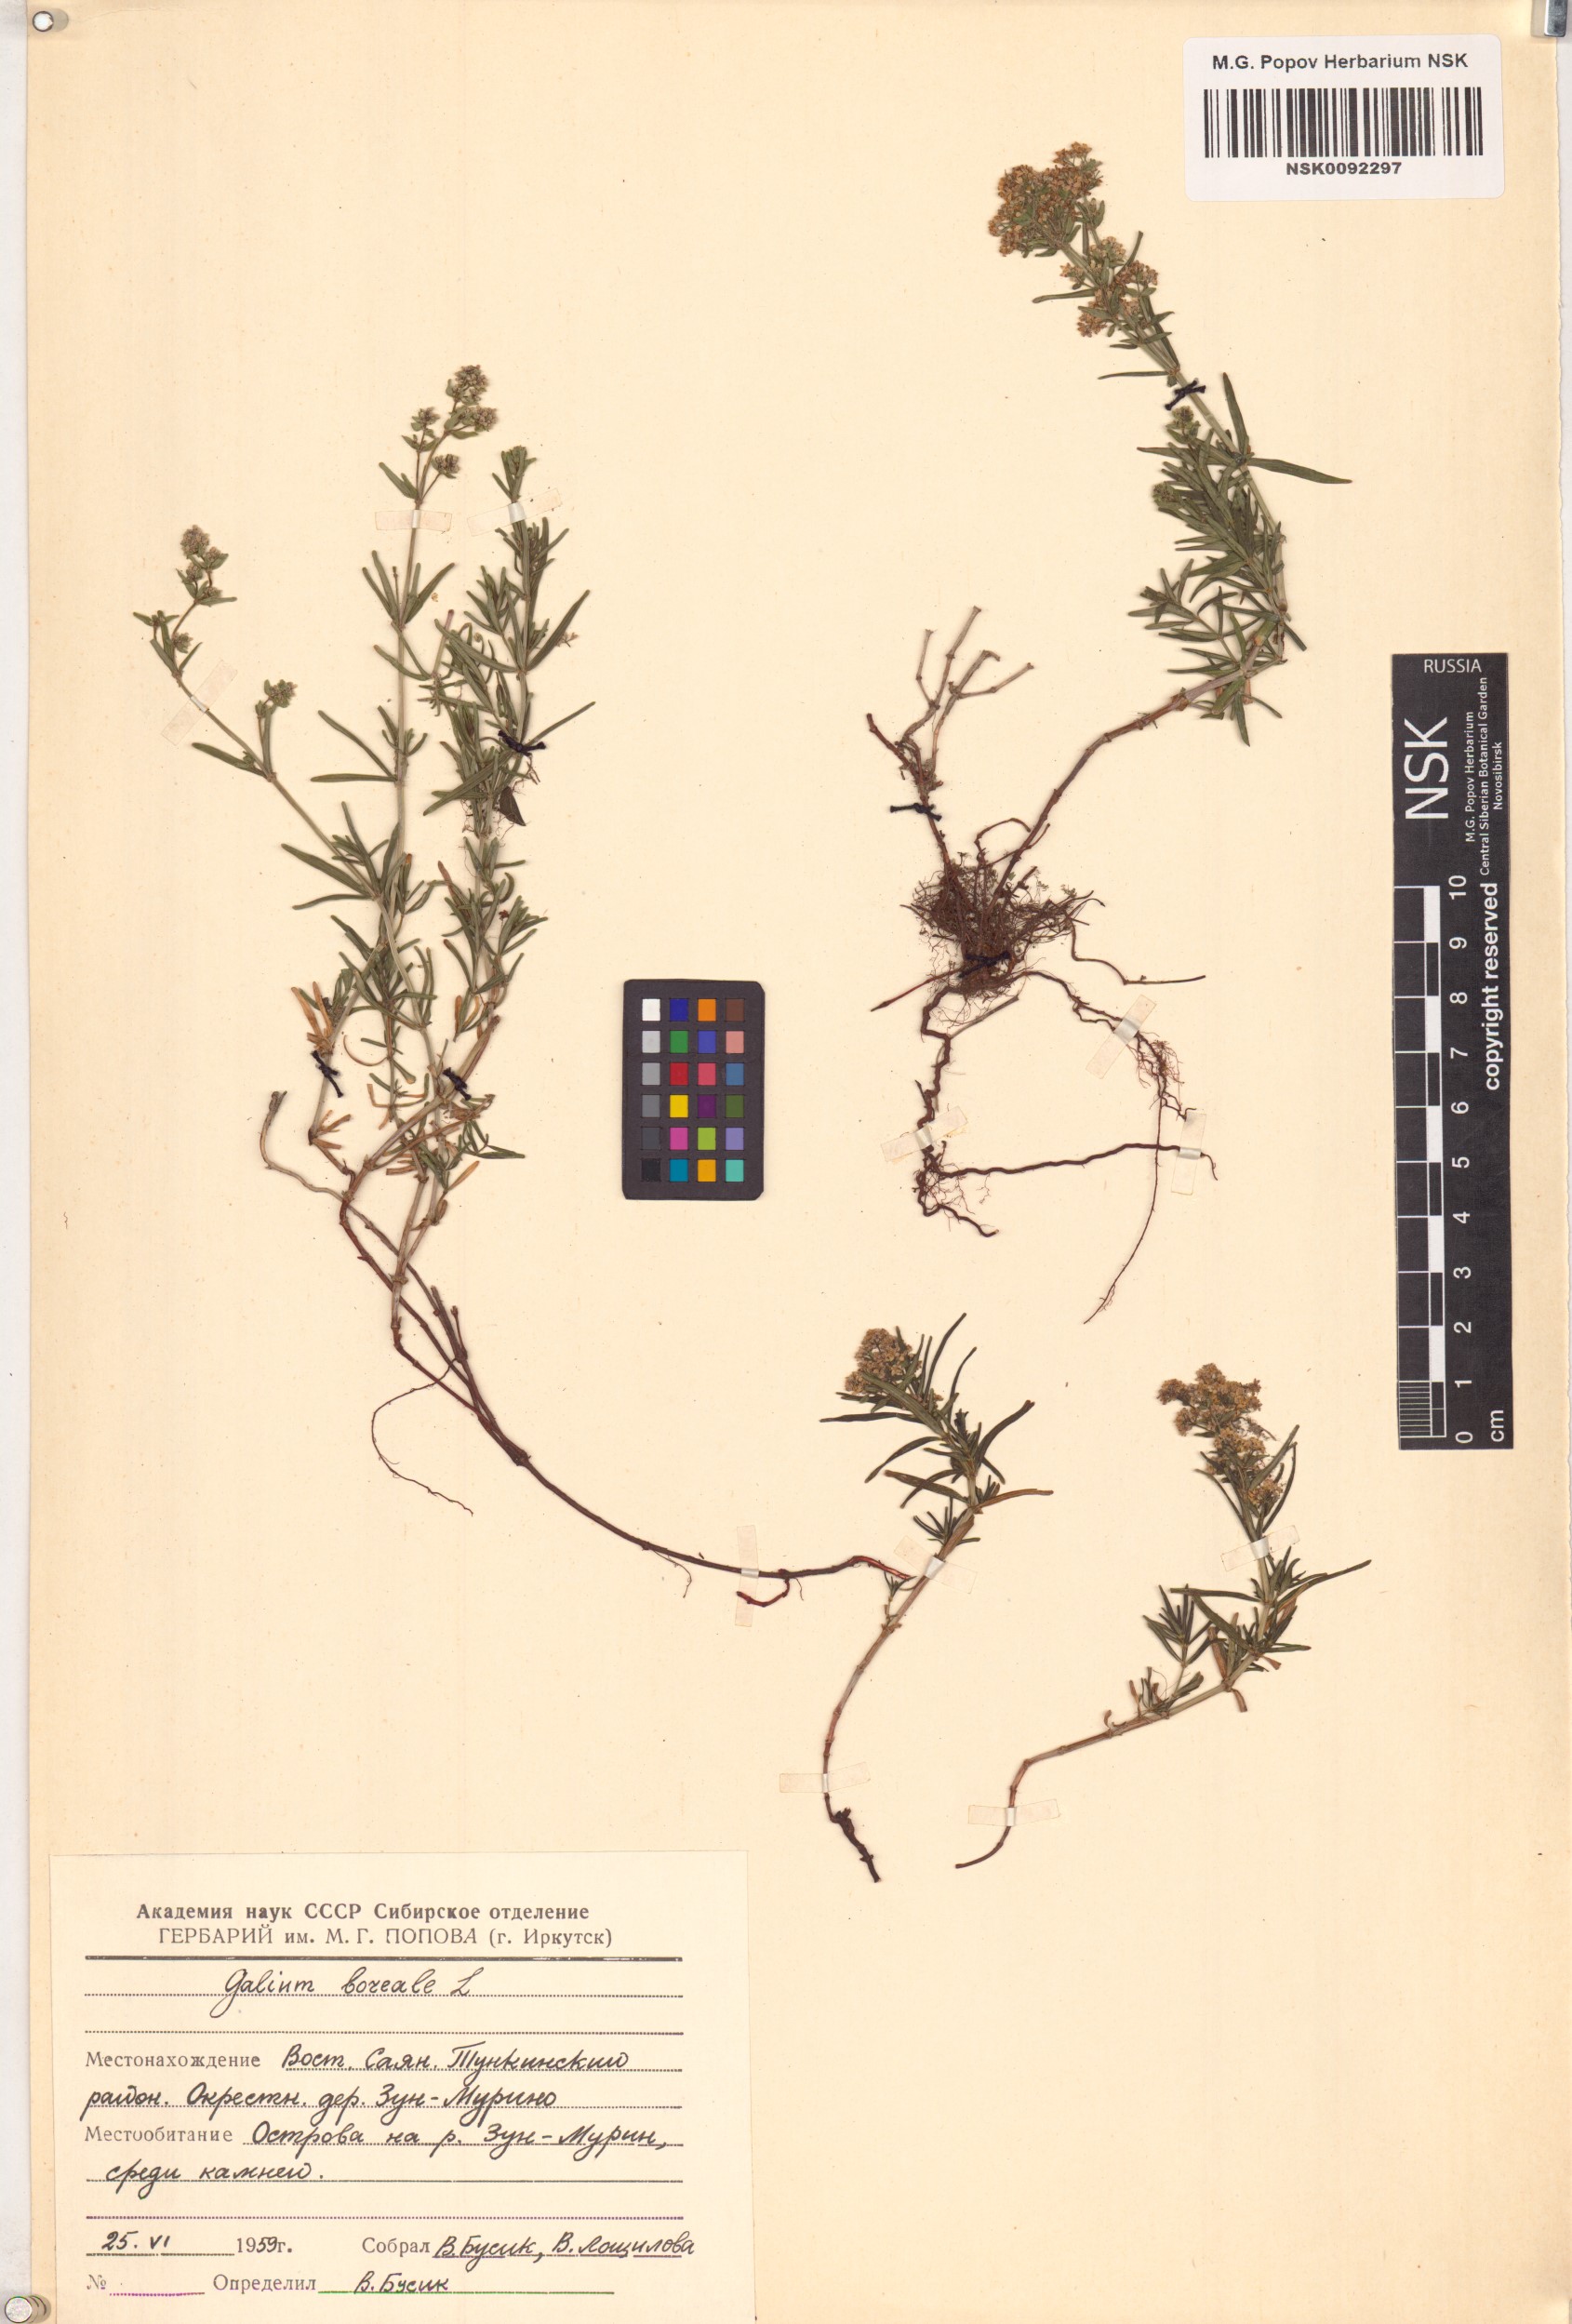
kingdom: Plantae
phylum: Tracheophyta
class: Magnoliopsida
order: Gentianales
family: Rubiaceae
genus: Galium
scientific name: Galium boreale
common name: Northern bedstraw
